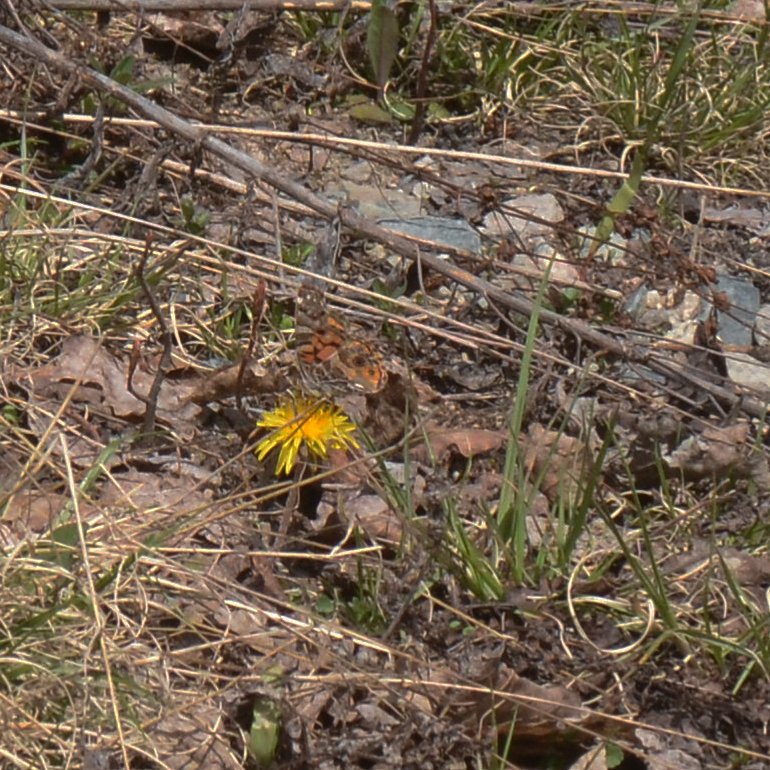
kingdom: Animalia
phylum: Arthropoda
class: Insecta
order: Lepidoptera
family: Nymphalidae
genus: Vanessa
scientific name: Vanessa virginiensis
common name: American Lady
